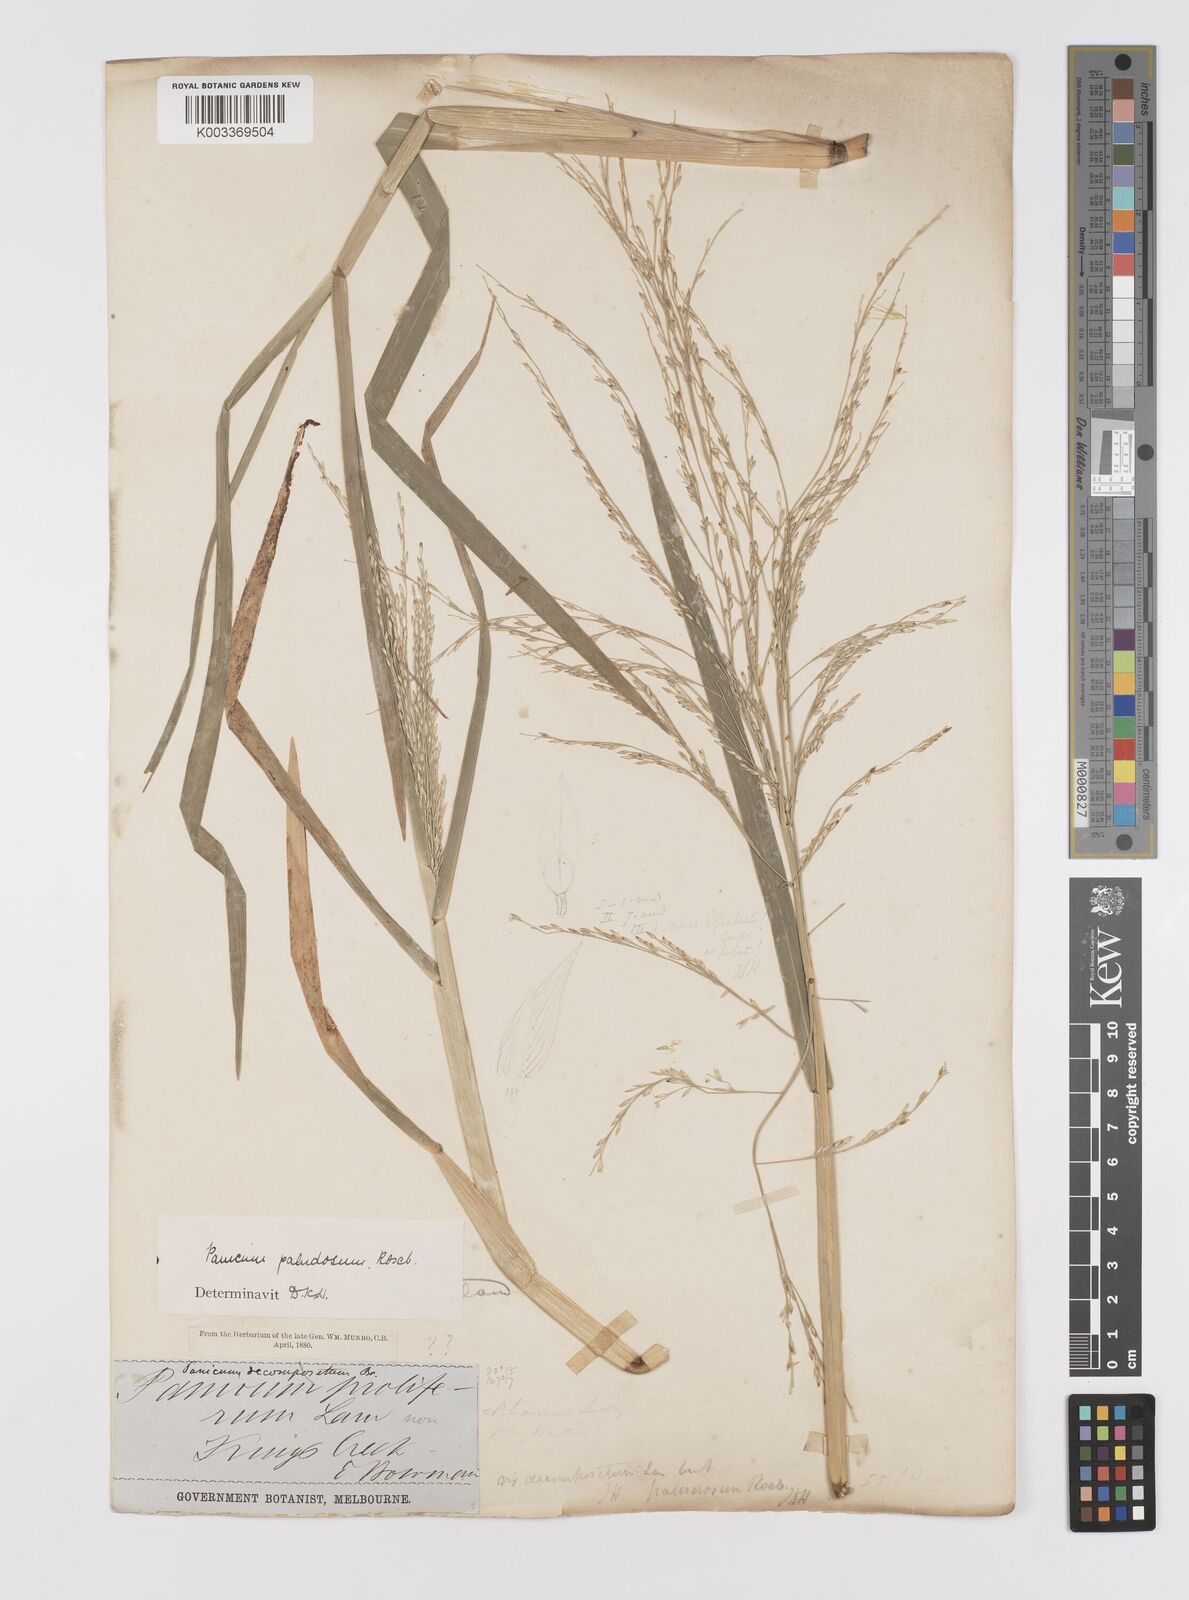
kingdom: Plantae
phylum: Tracheophyta
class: Liliopsida
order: Poales
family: Poaceae
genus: Louisiella
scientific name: Louisiella paludosa
